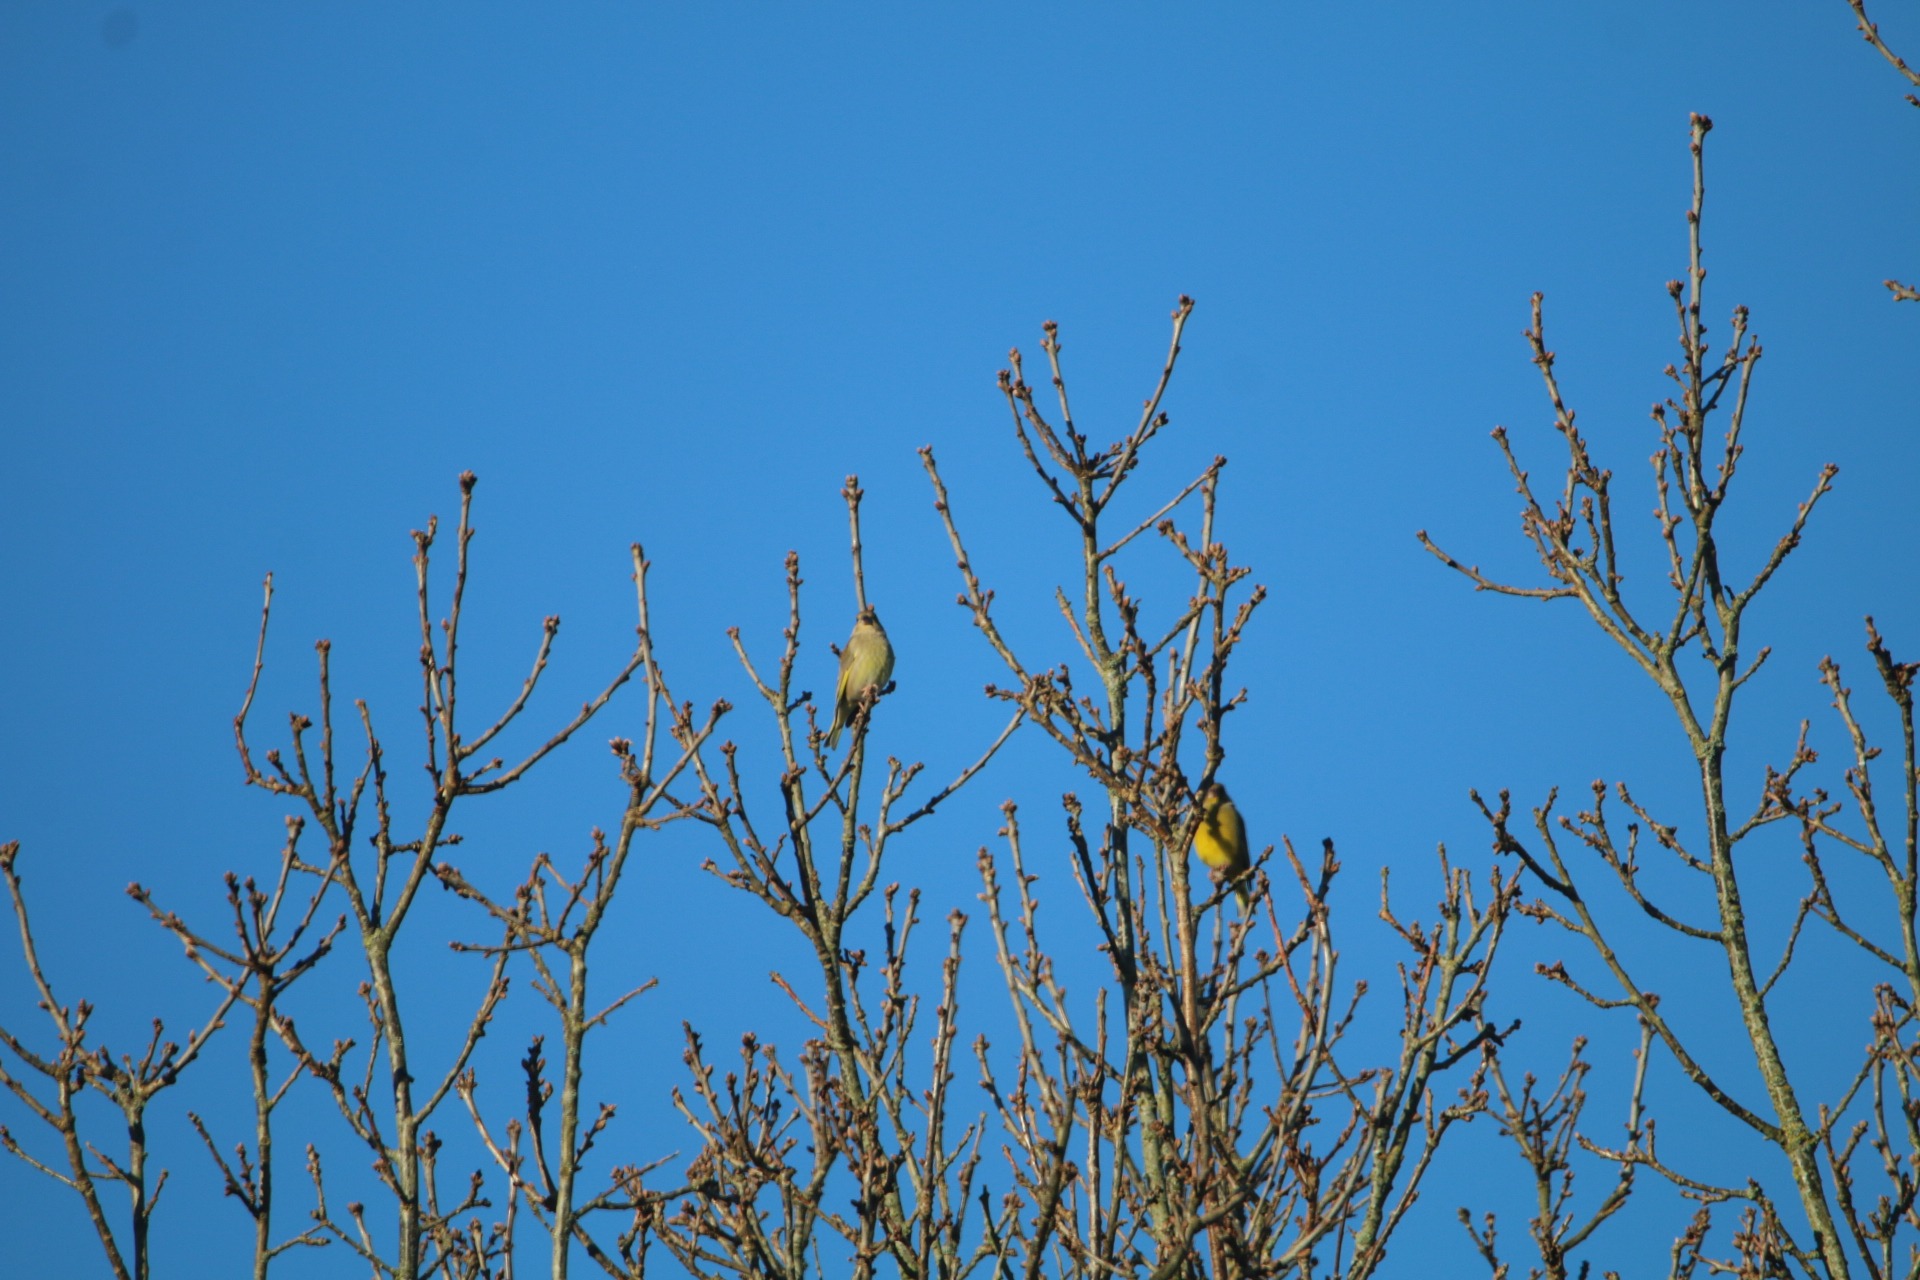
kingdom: Plantae
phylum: Tracheophyta
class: Liliopsida
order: Poales
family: Poaceae
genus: Chloris
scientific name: Chloris chloris
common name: Grønirisk
